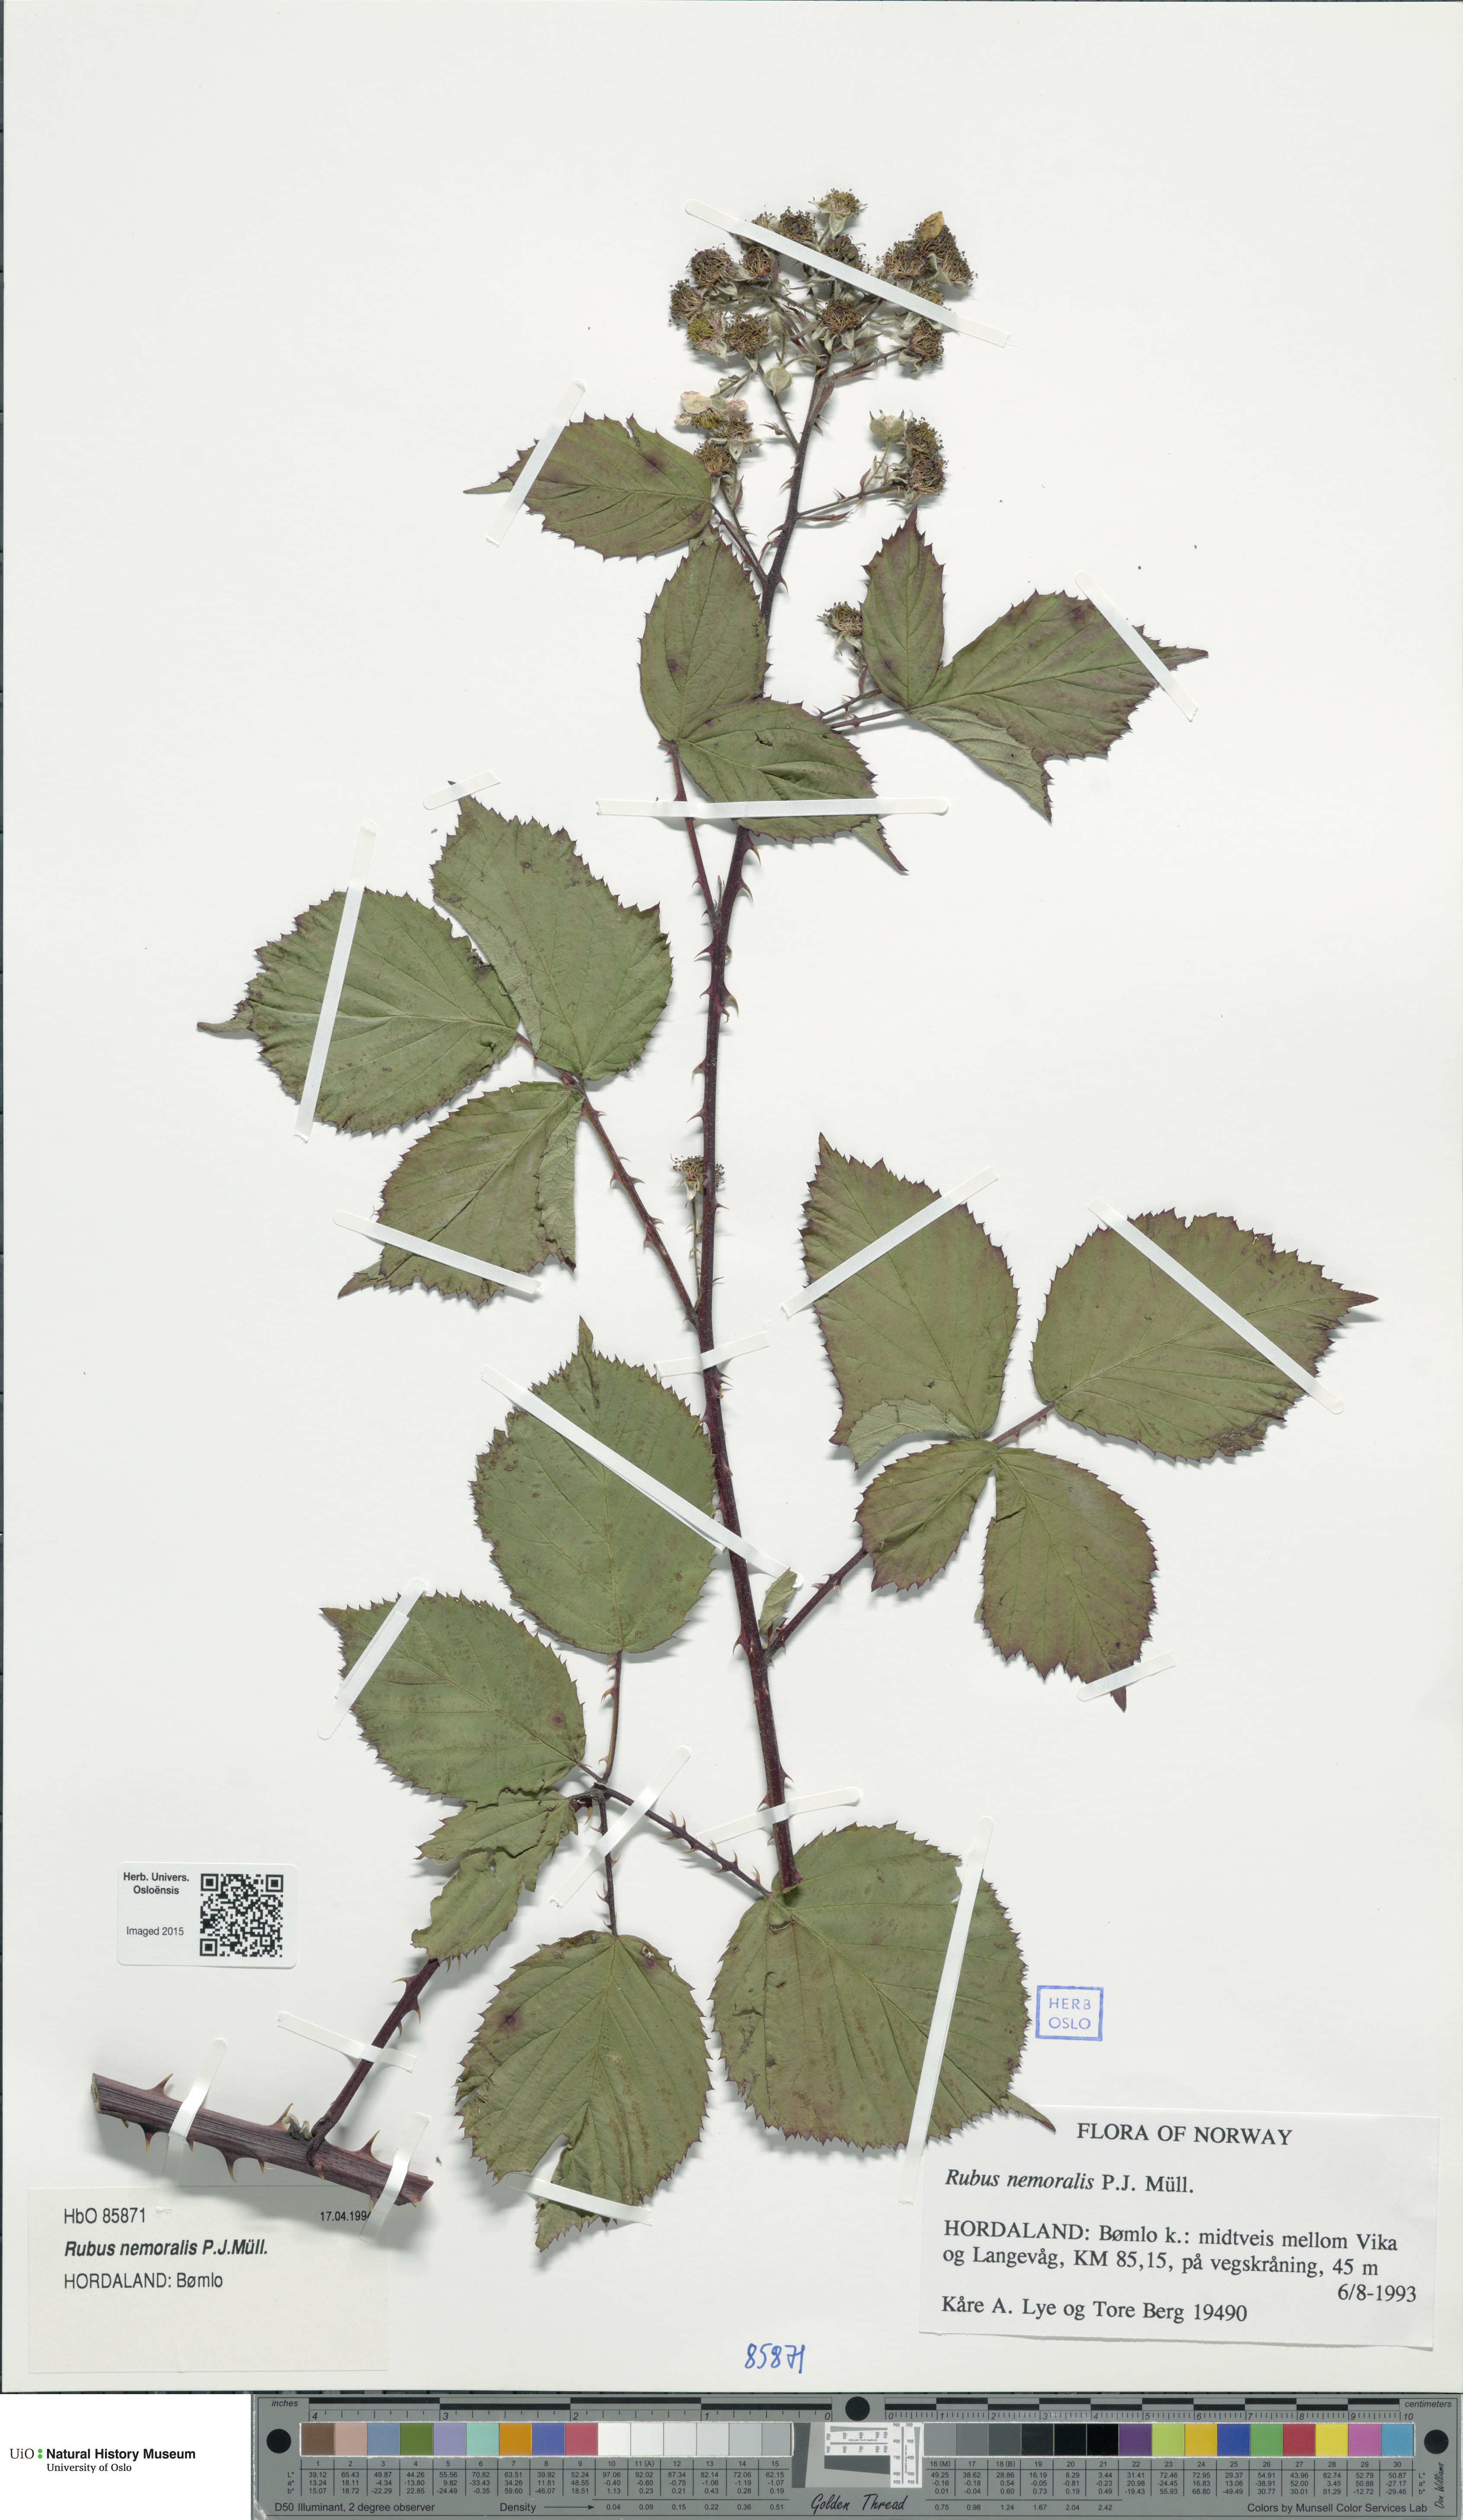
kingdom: Plantae
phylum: Tracheophyta
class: Magnoliopsida
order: Rosales
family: Rosaceae
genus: Rubus
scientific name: Rubus nemoralis
